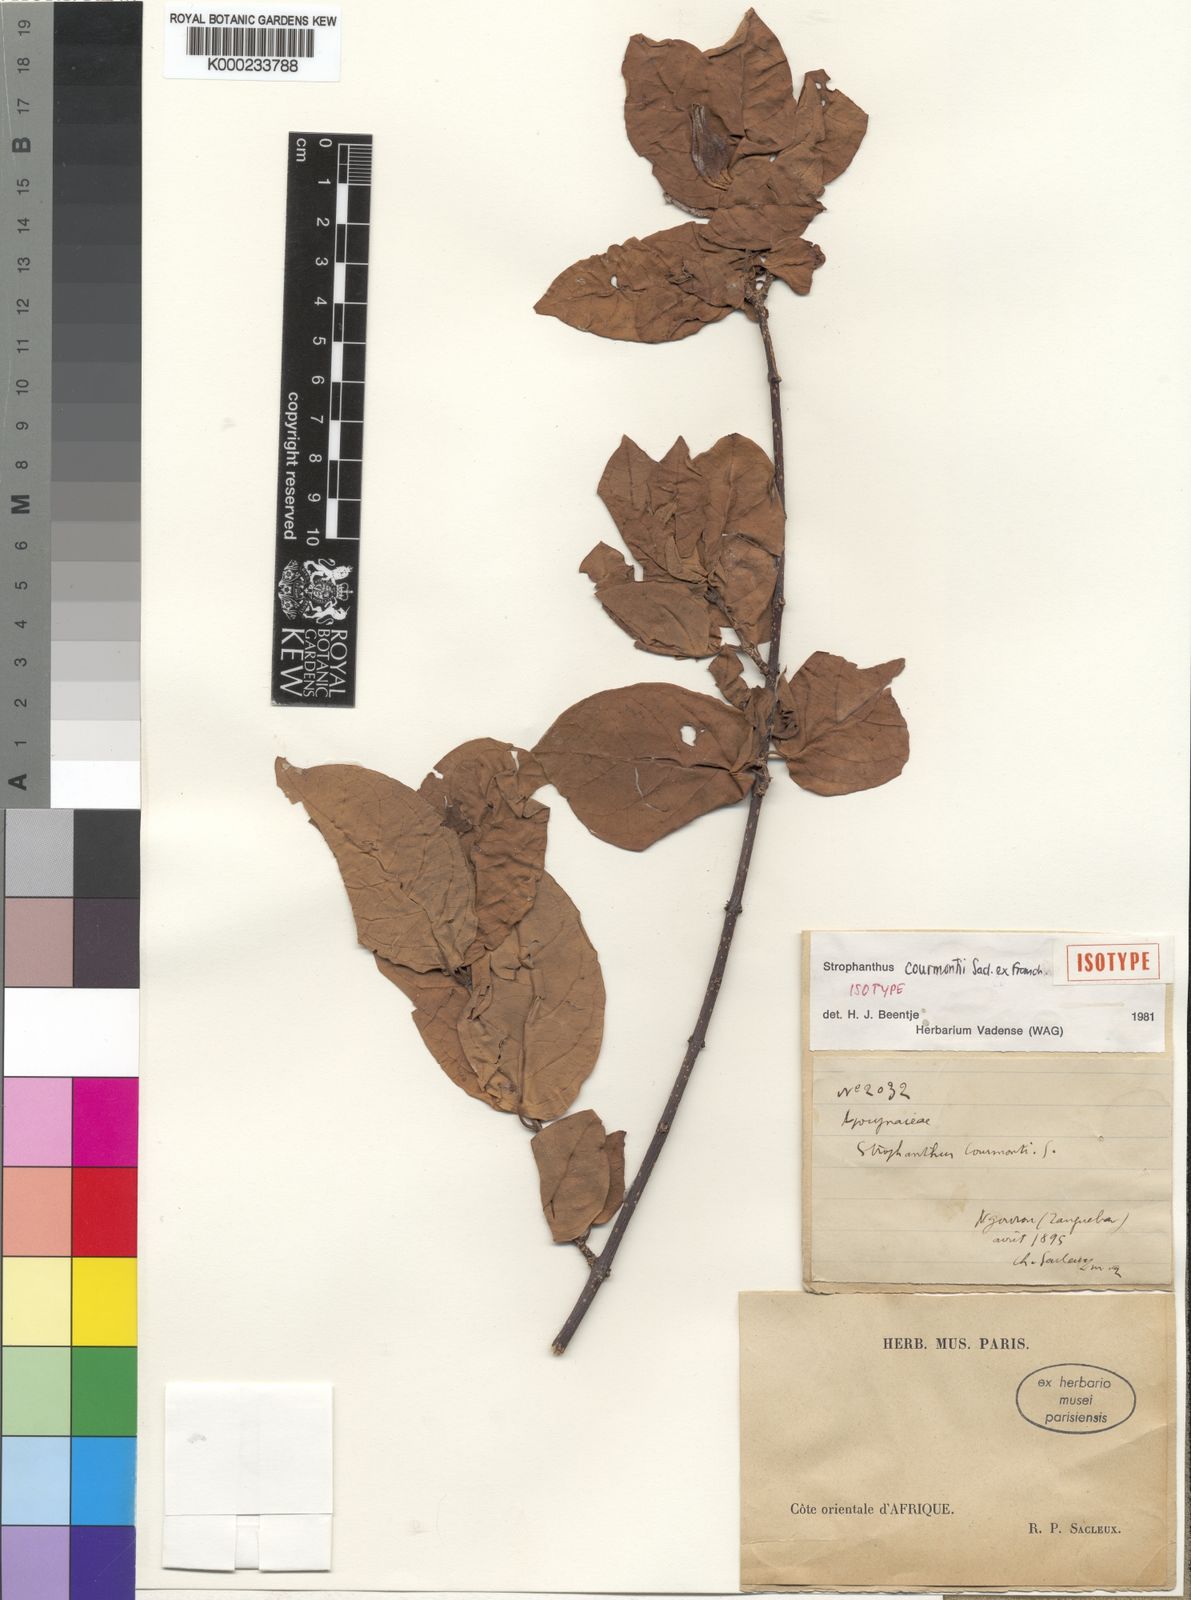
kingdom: Plantae
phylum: Tracheophyta
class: Magnoliopsida
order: Gentianales
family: Apocynaceae
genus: Strophanthus
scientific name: Strophanthus courmontii
